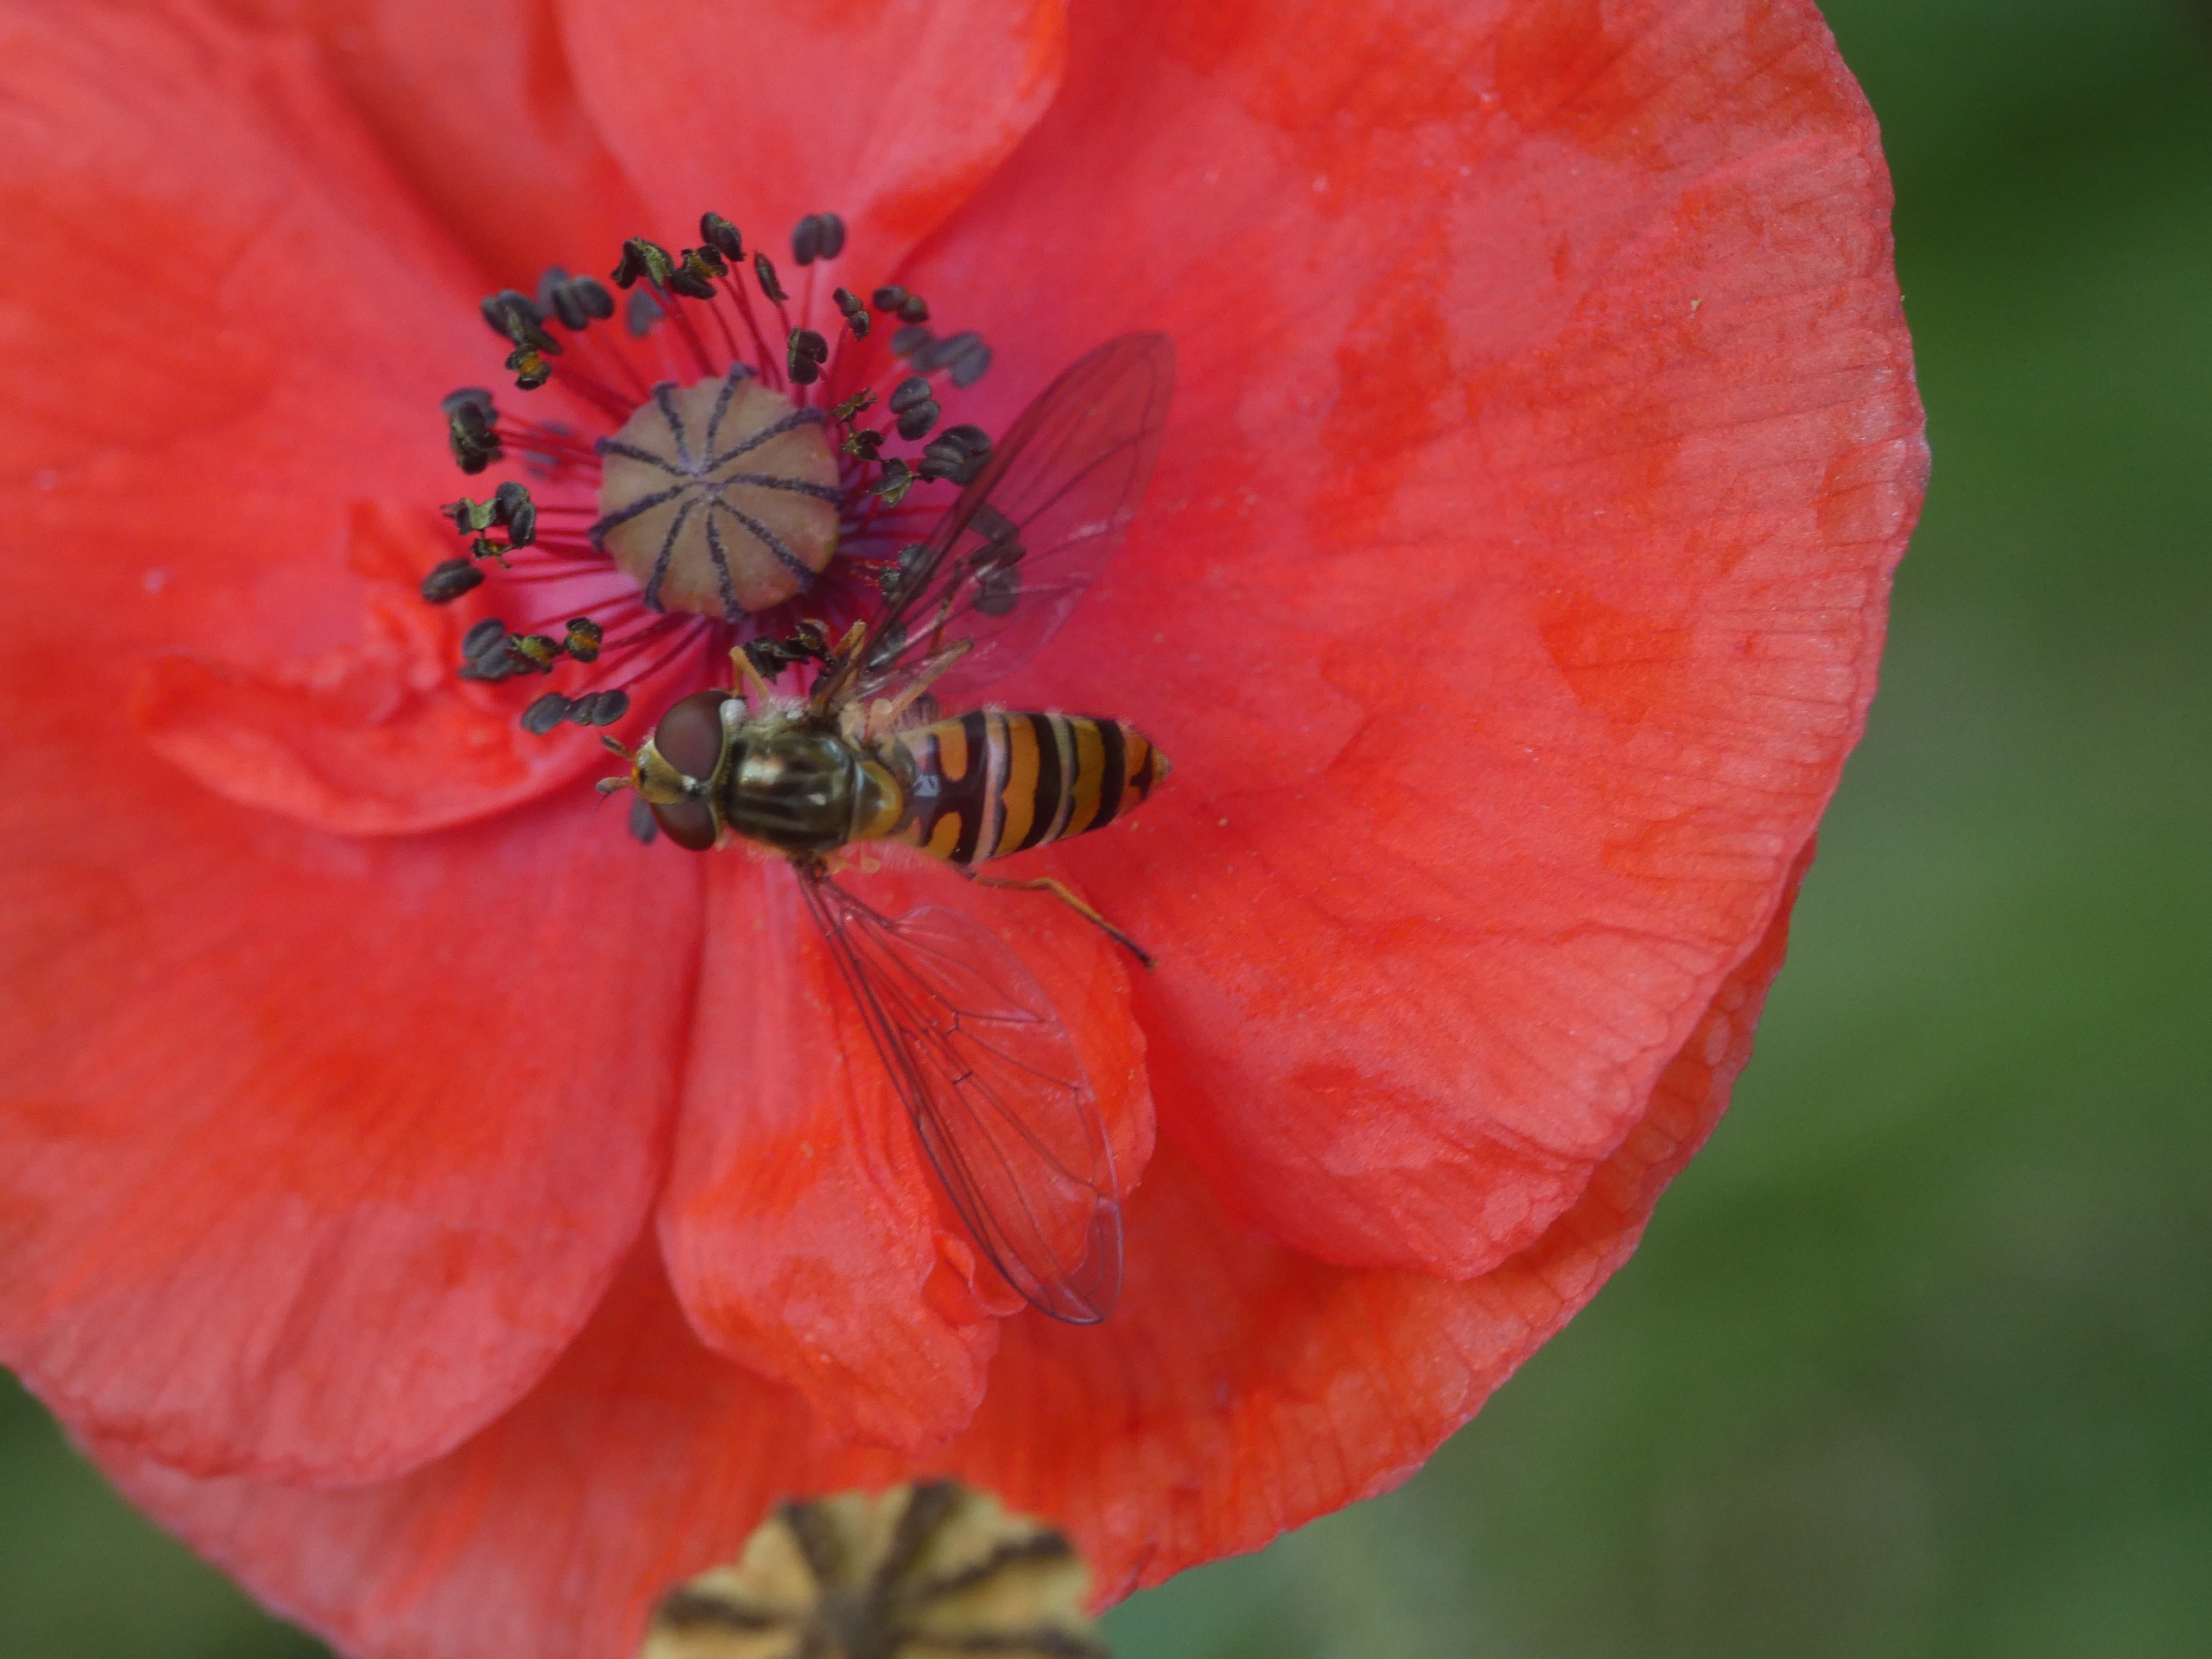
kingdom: Animalia
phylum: Arthropoda
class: Insecta
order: Diptera
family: Syrphidae
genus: Episyrphus
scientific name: Episyrphus balteatus
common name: Dobbeltbåndet svirreflue
